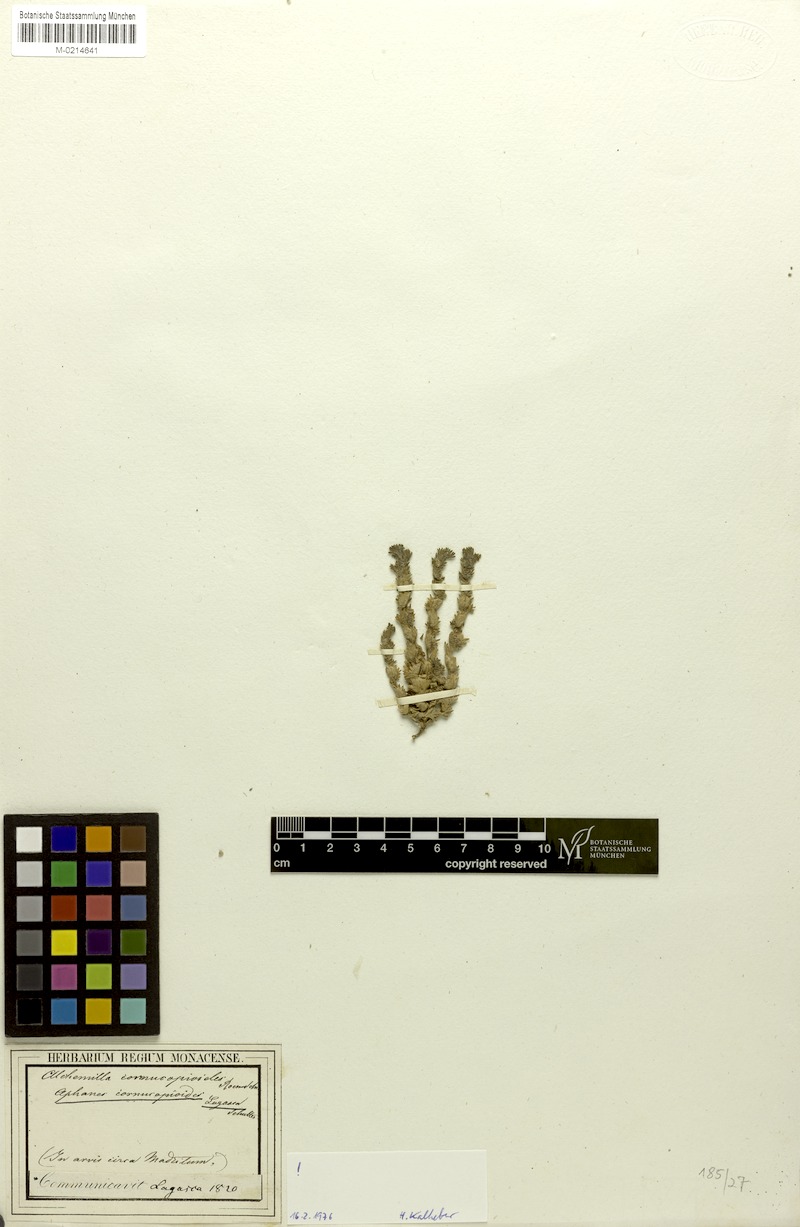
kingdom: Plantae
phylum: Tracheophyta
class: Magnoliopsida
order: Rosales
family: Rosaceae
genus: Aphanes
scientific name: Aphanes cornucopioides
